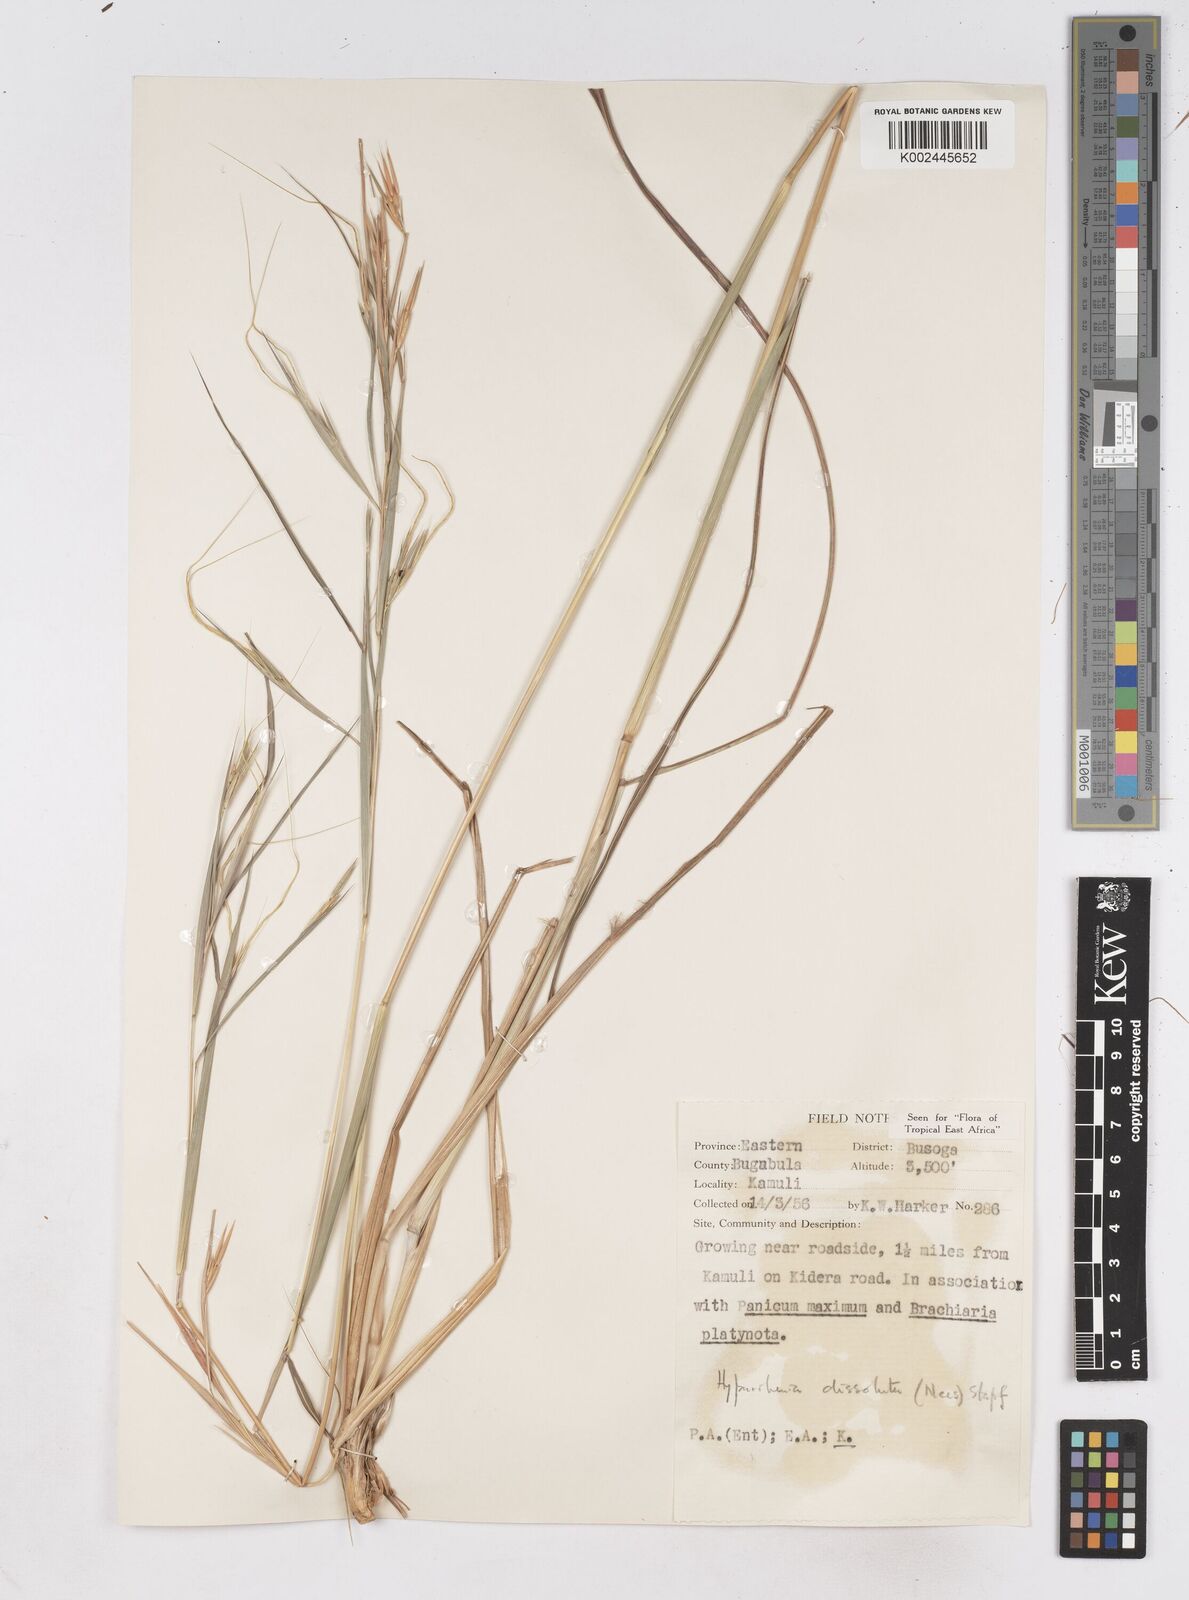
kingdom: Plantae
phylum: Tracheophyta
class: Liliopsida
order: Poales
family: Poaceae
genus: Hyperthelia
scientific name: Hyperthelia dissoluta
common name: Yellow thatching grass
